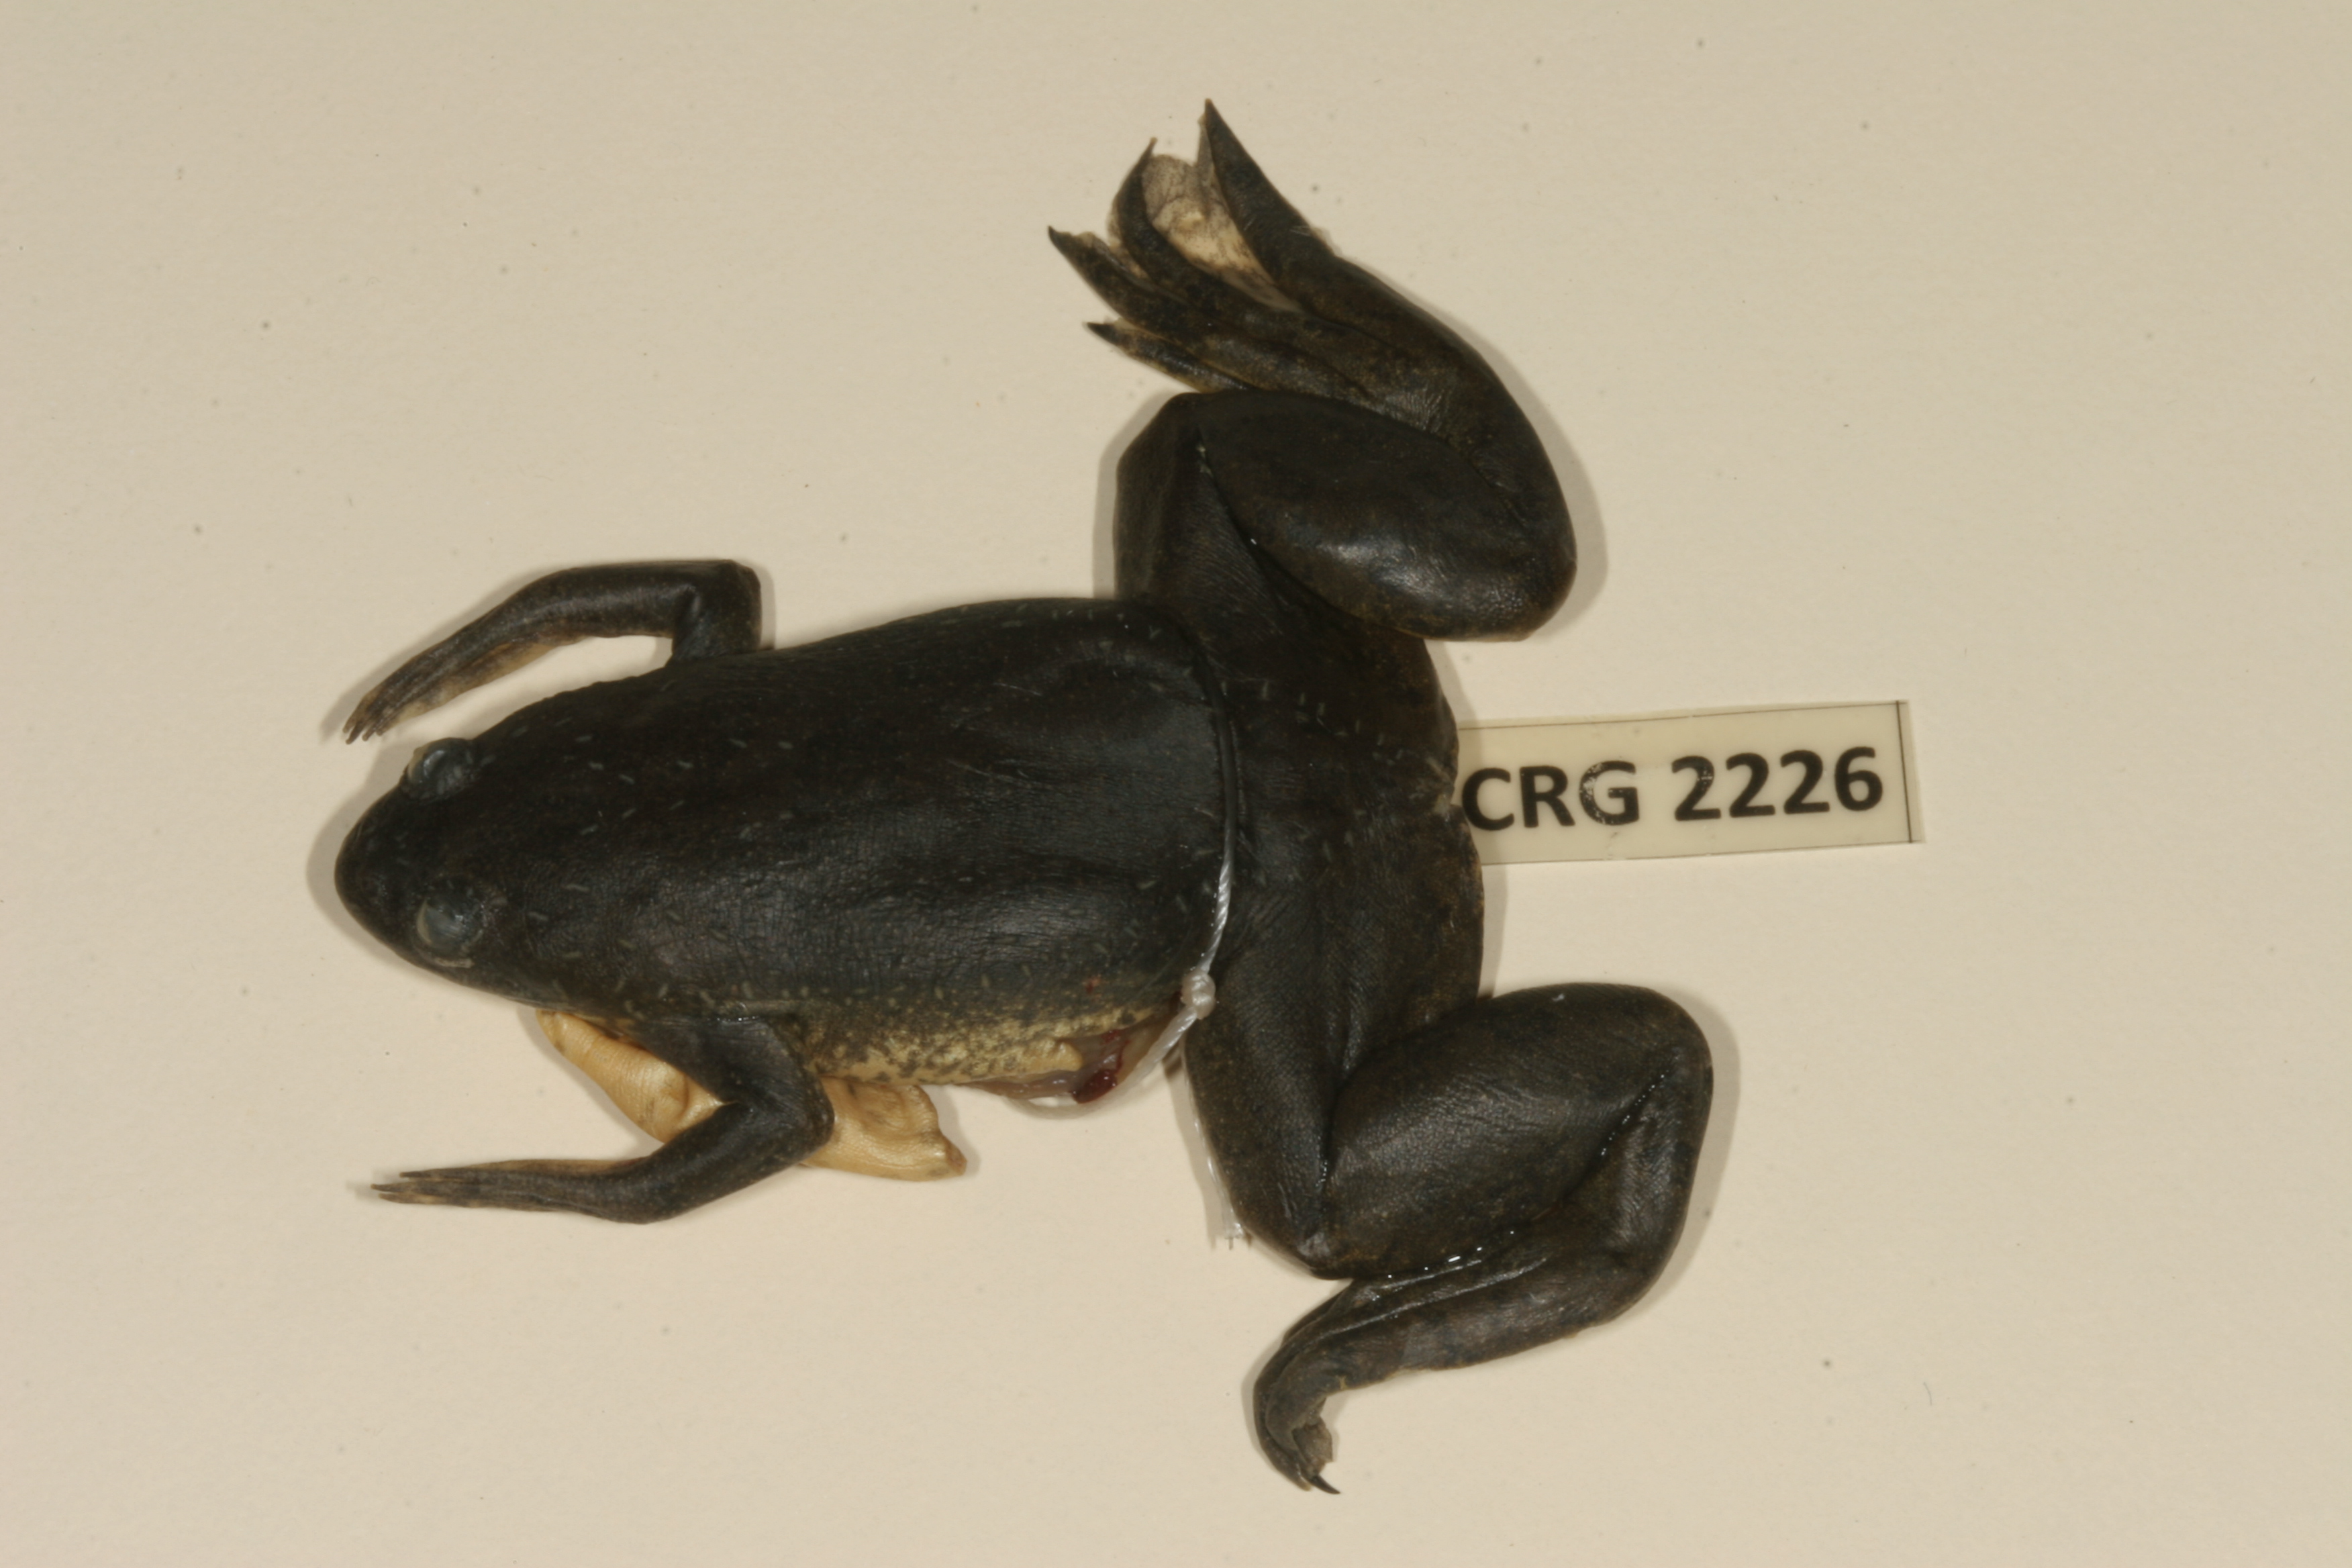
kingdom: Animalia
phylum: Chordata
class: Amphibia
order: Anura
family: Pipidae
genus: Xenopus
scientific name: Xenopus muelleri
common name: Muller's clawed frog
